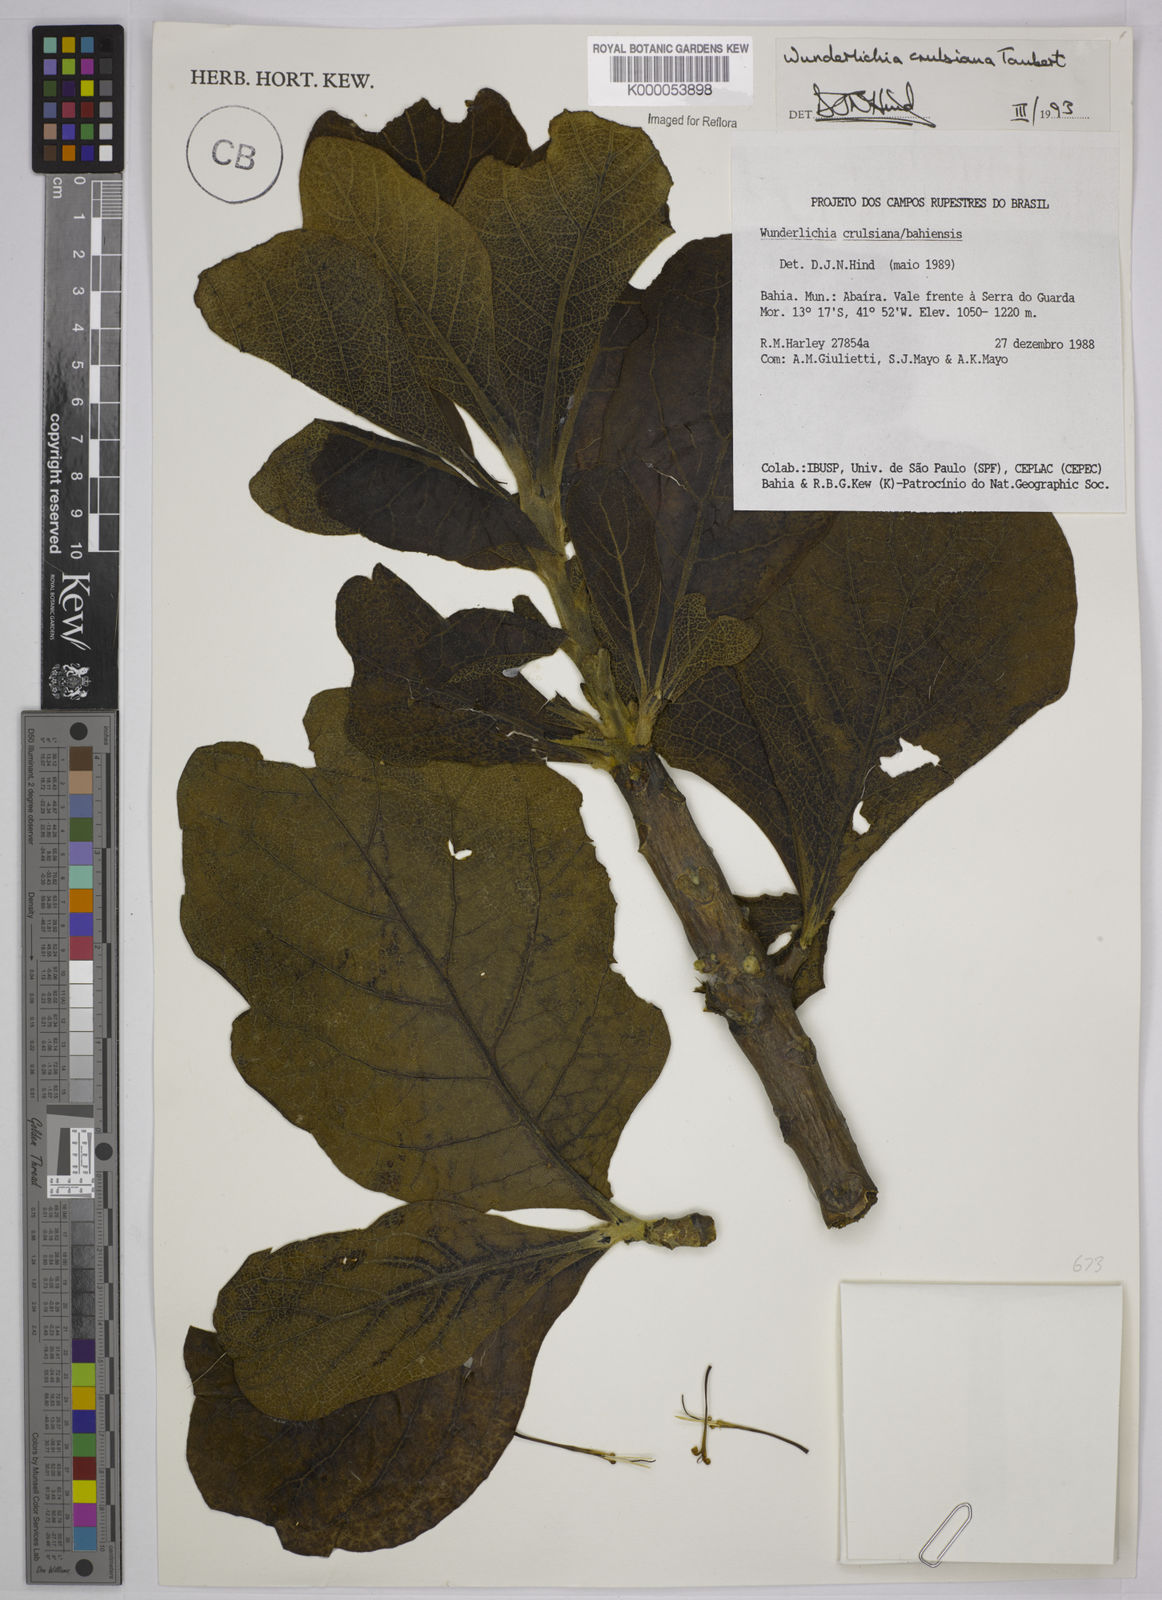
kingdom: Plantae
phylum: Tracheophyta
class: Magnoliopsida
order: Asterales
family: Asteraceae
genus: Wunderlichia
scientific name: Wunderlichia
